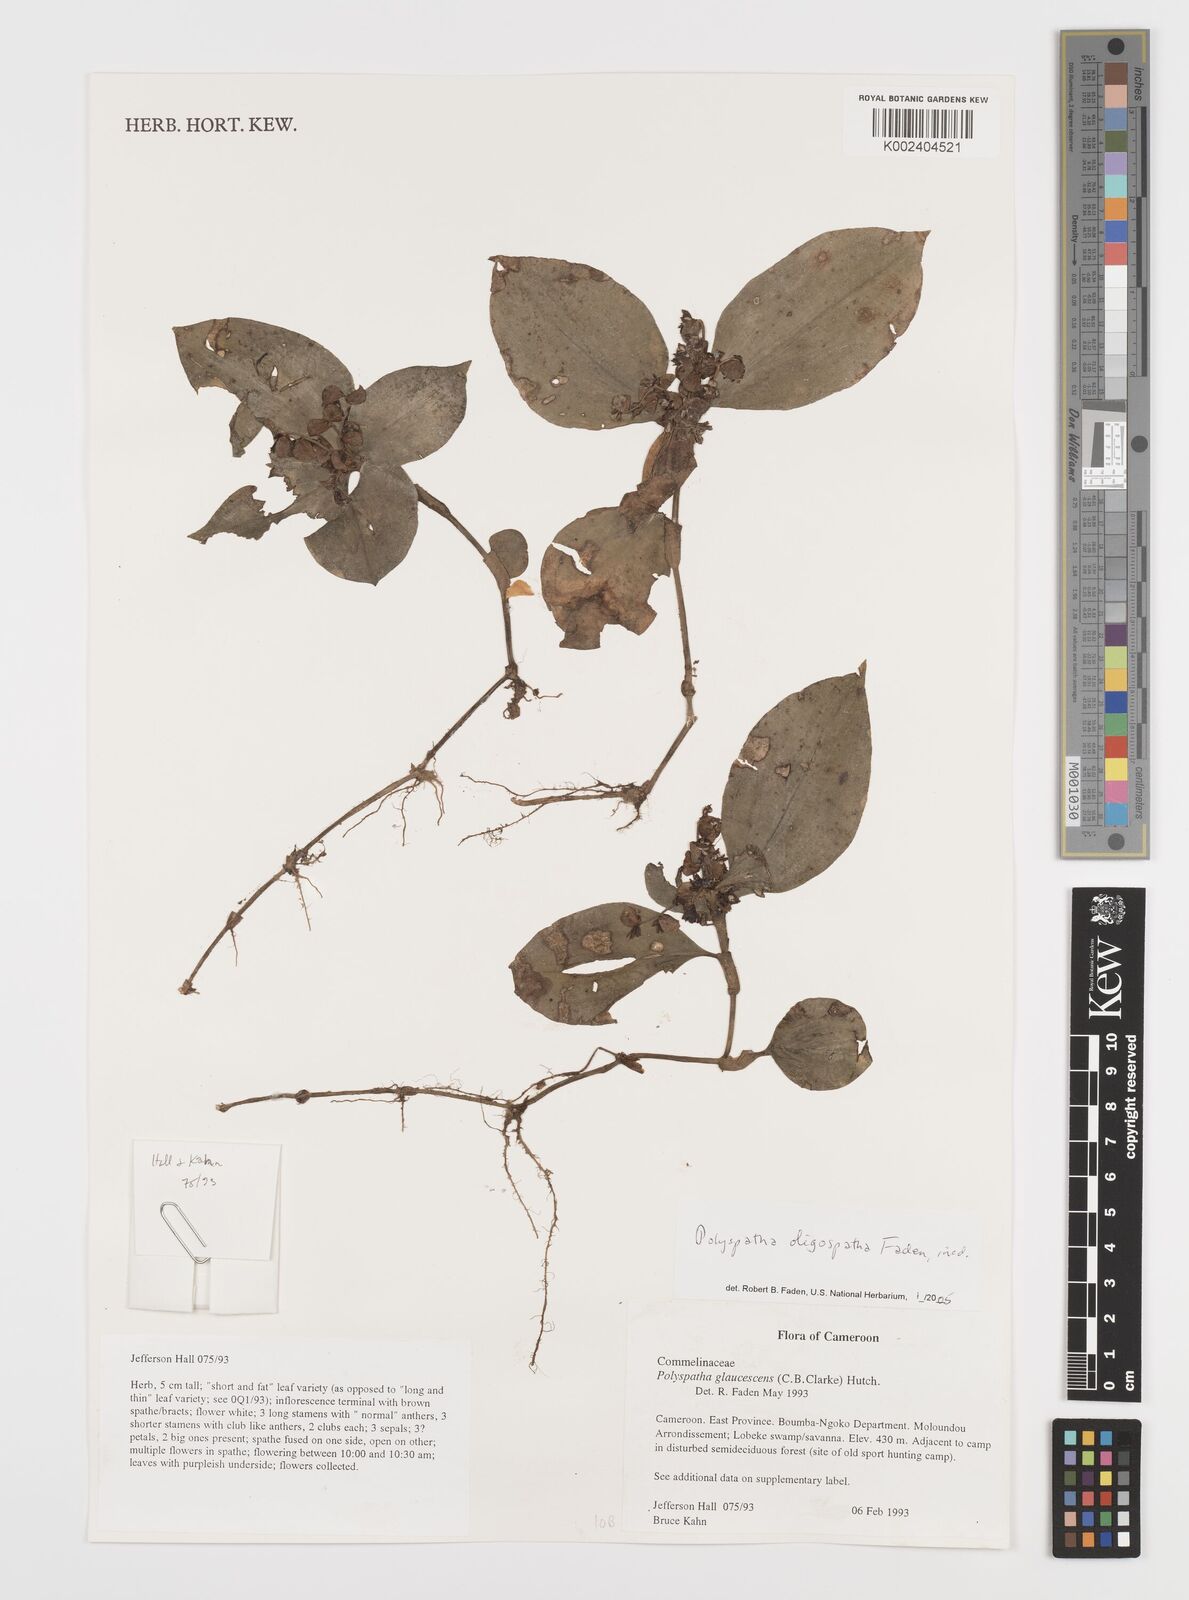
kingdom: Plantae
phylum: Tracheophyta
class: Liliopsida
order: Commelinales
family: Commelinaceae
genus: Polyspatha
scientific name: Polyspatha paniculata
